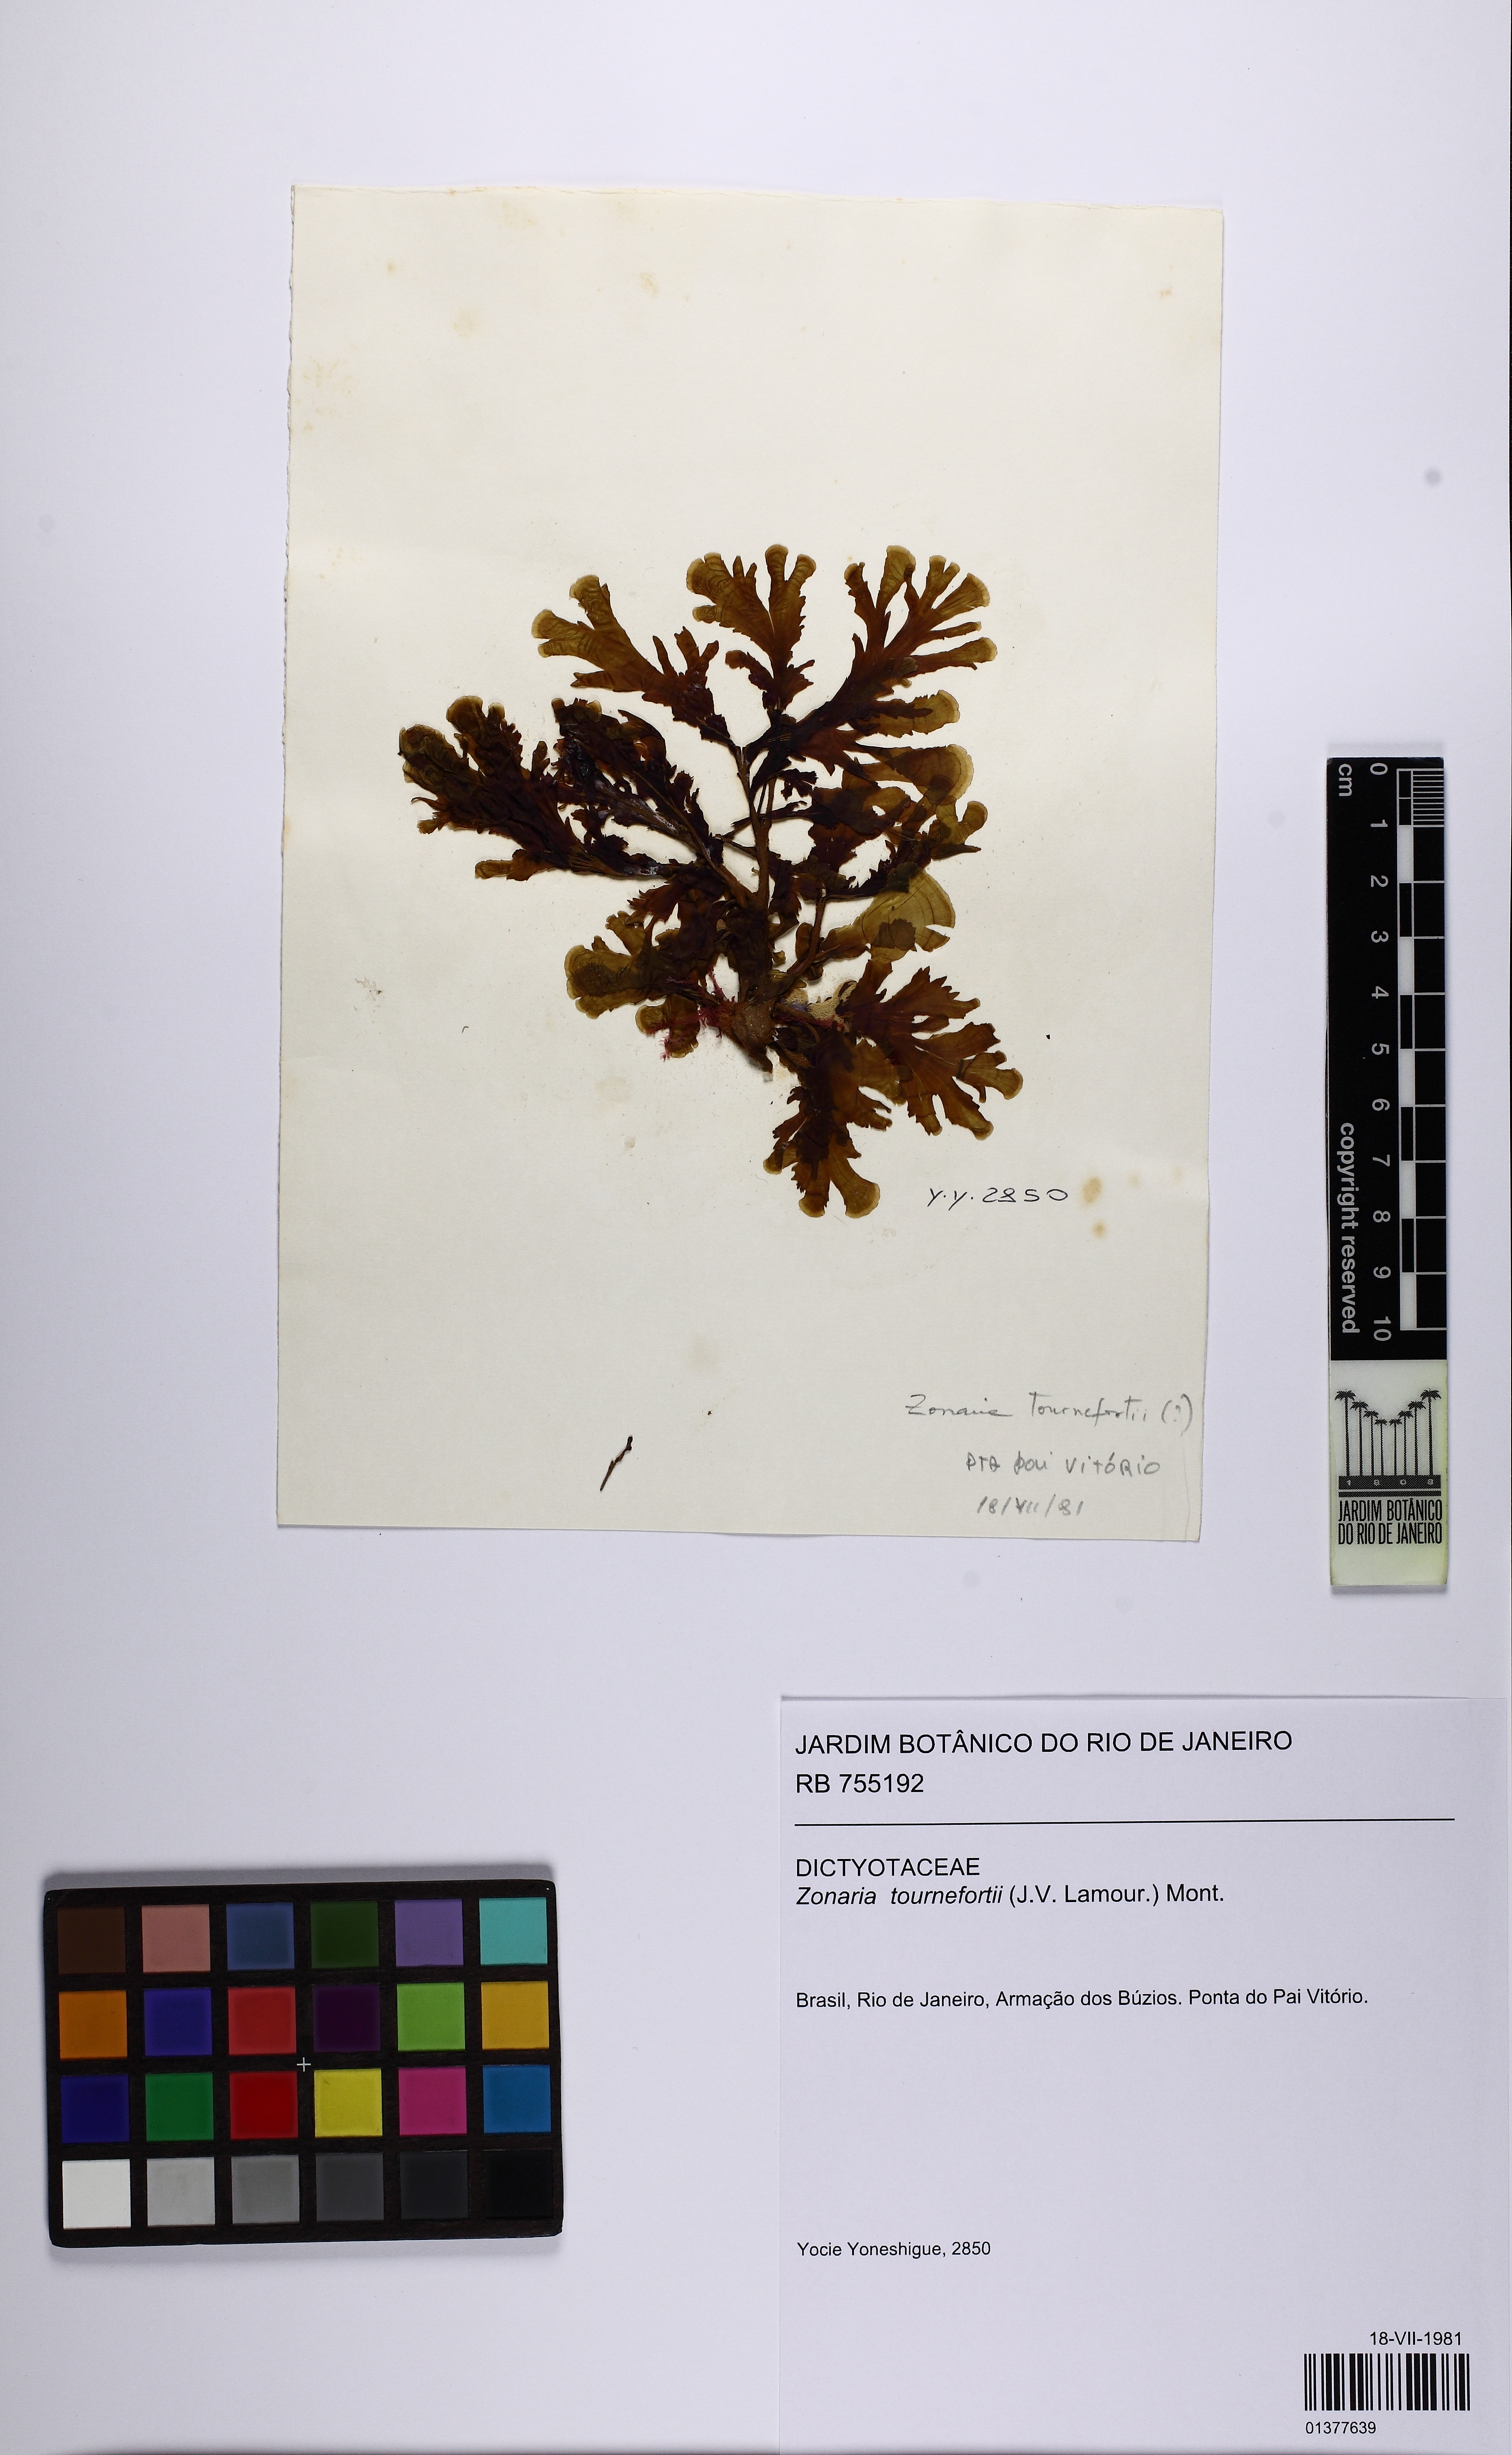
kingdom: Chromista
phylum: Ochrophyta
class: Phaeophyceae
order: Dictyotales
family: Dictyotaceae
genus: Zonaria
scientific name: Zonaria tournefortii
